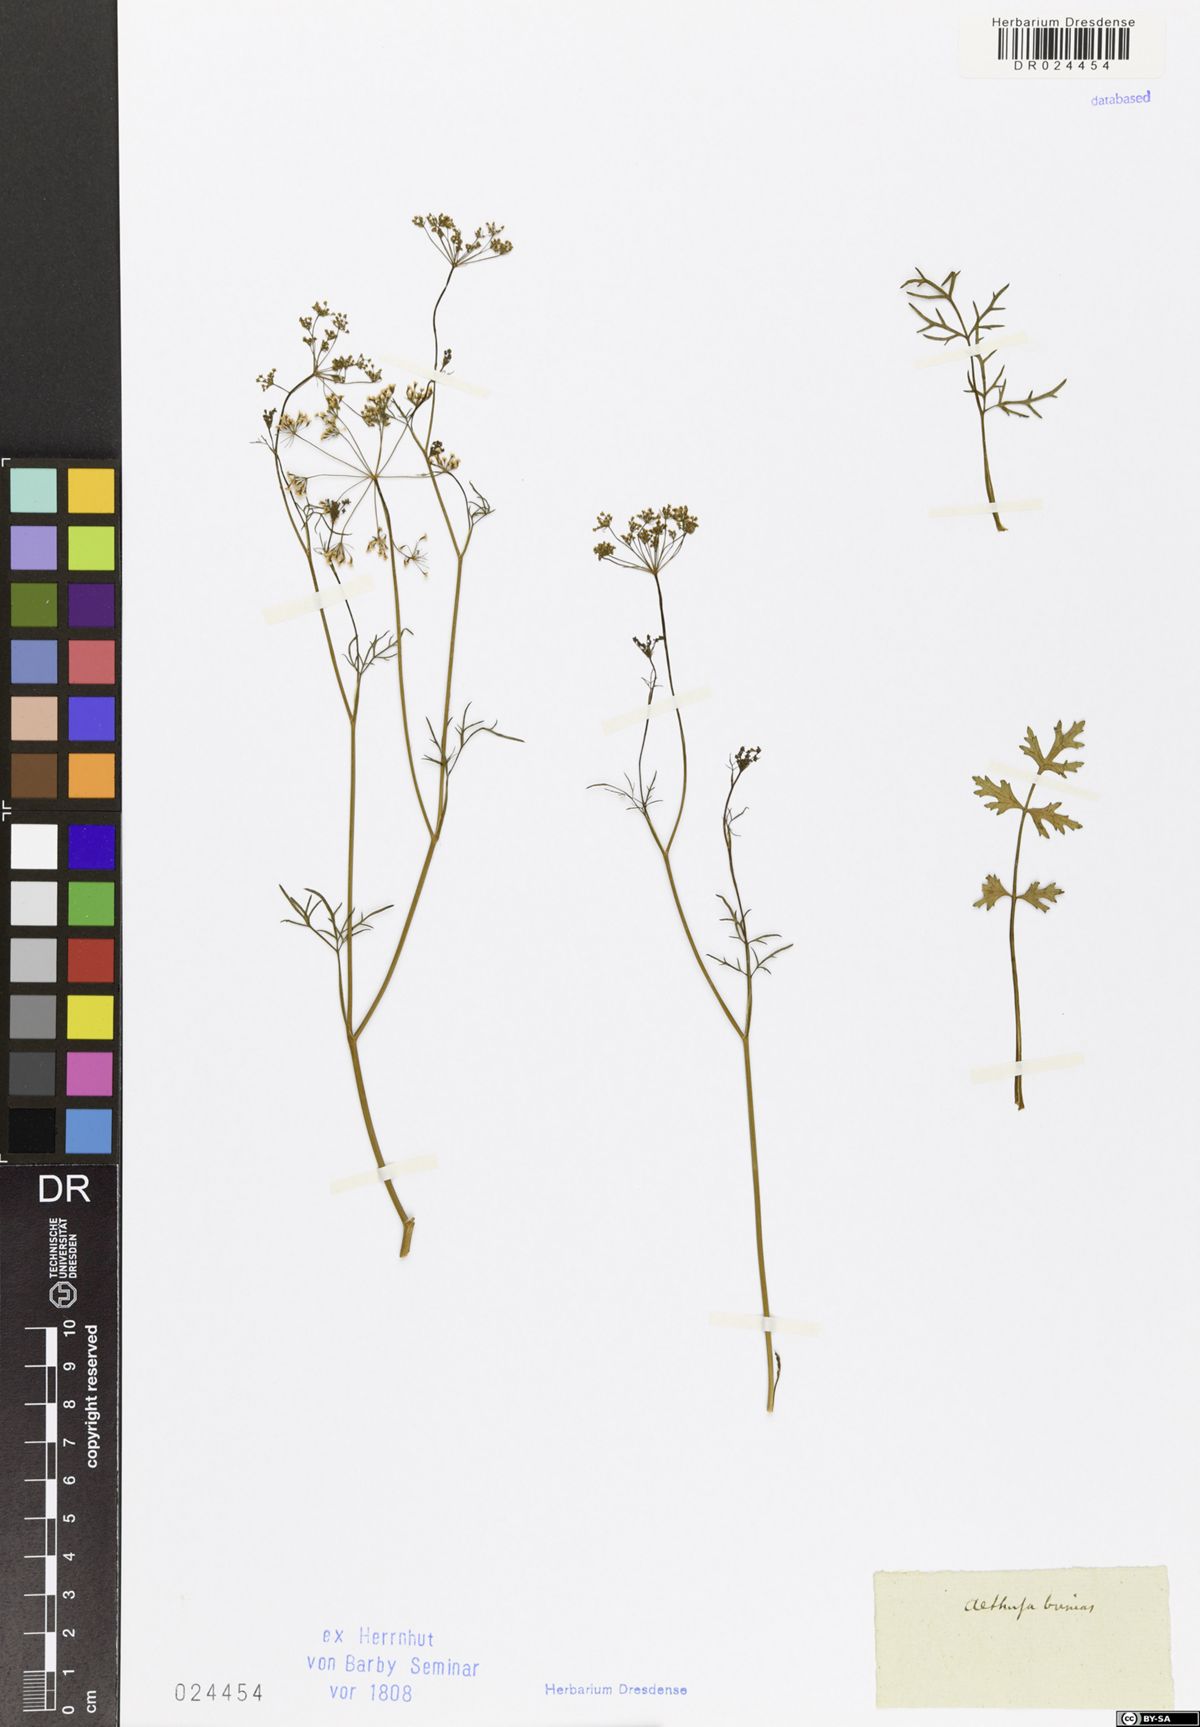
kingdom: Plantae
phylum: Tracheophyta
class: Magnoliopsida
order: Apiales
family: Apiaceae
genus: Ptychotis
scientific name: Ptychotis saxifraga
